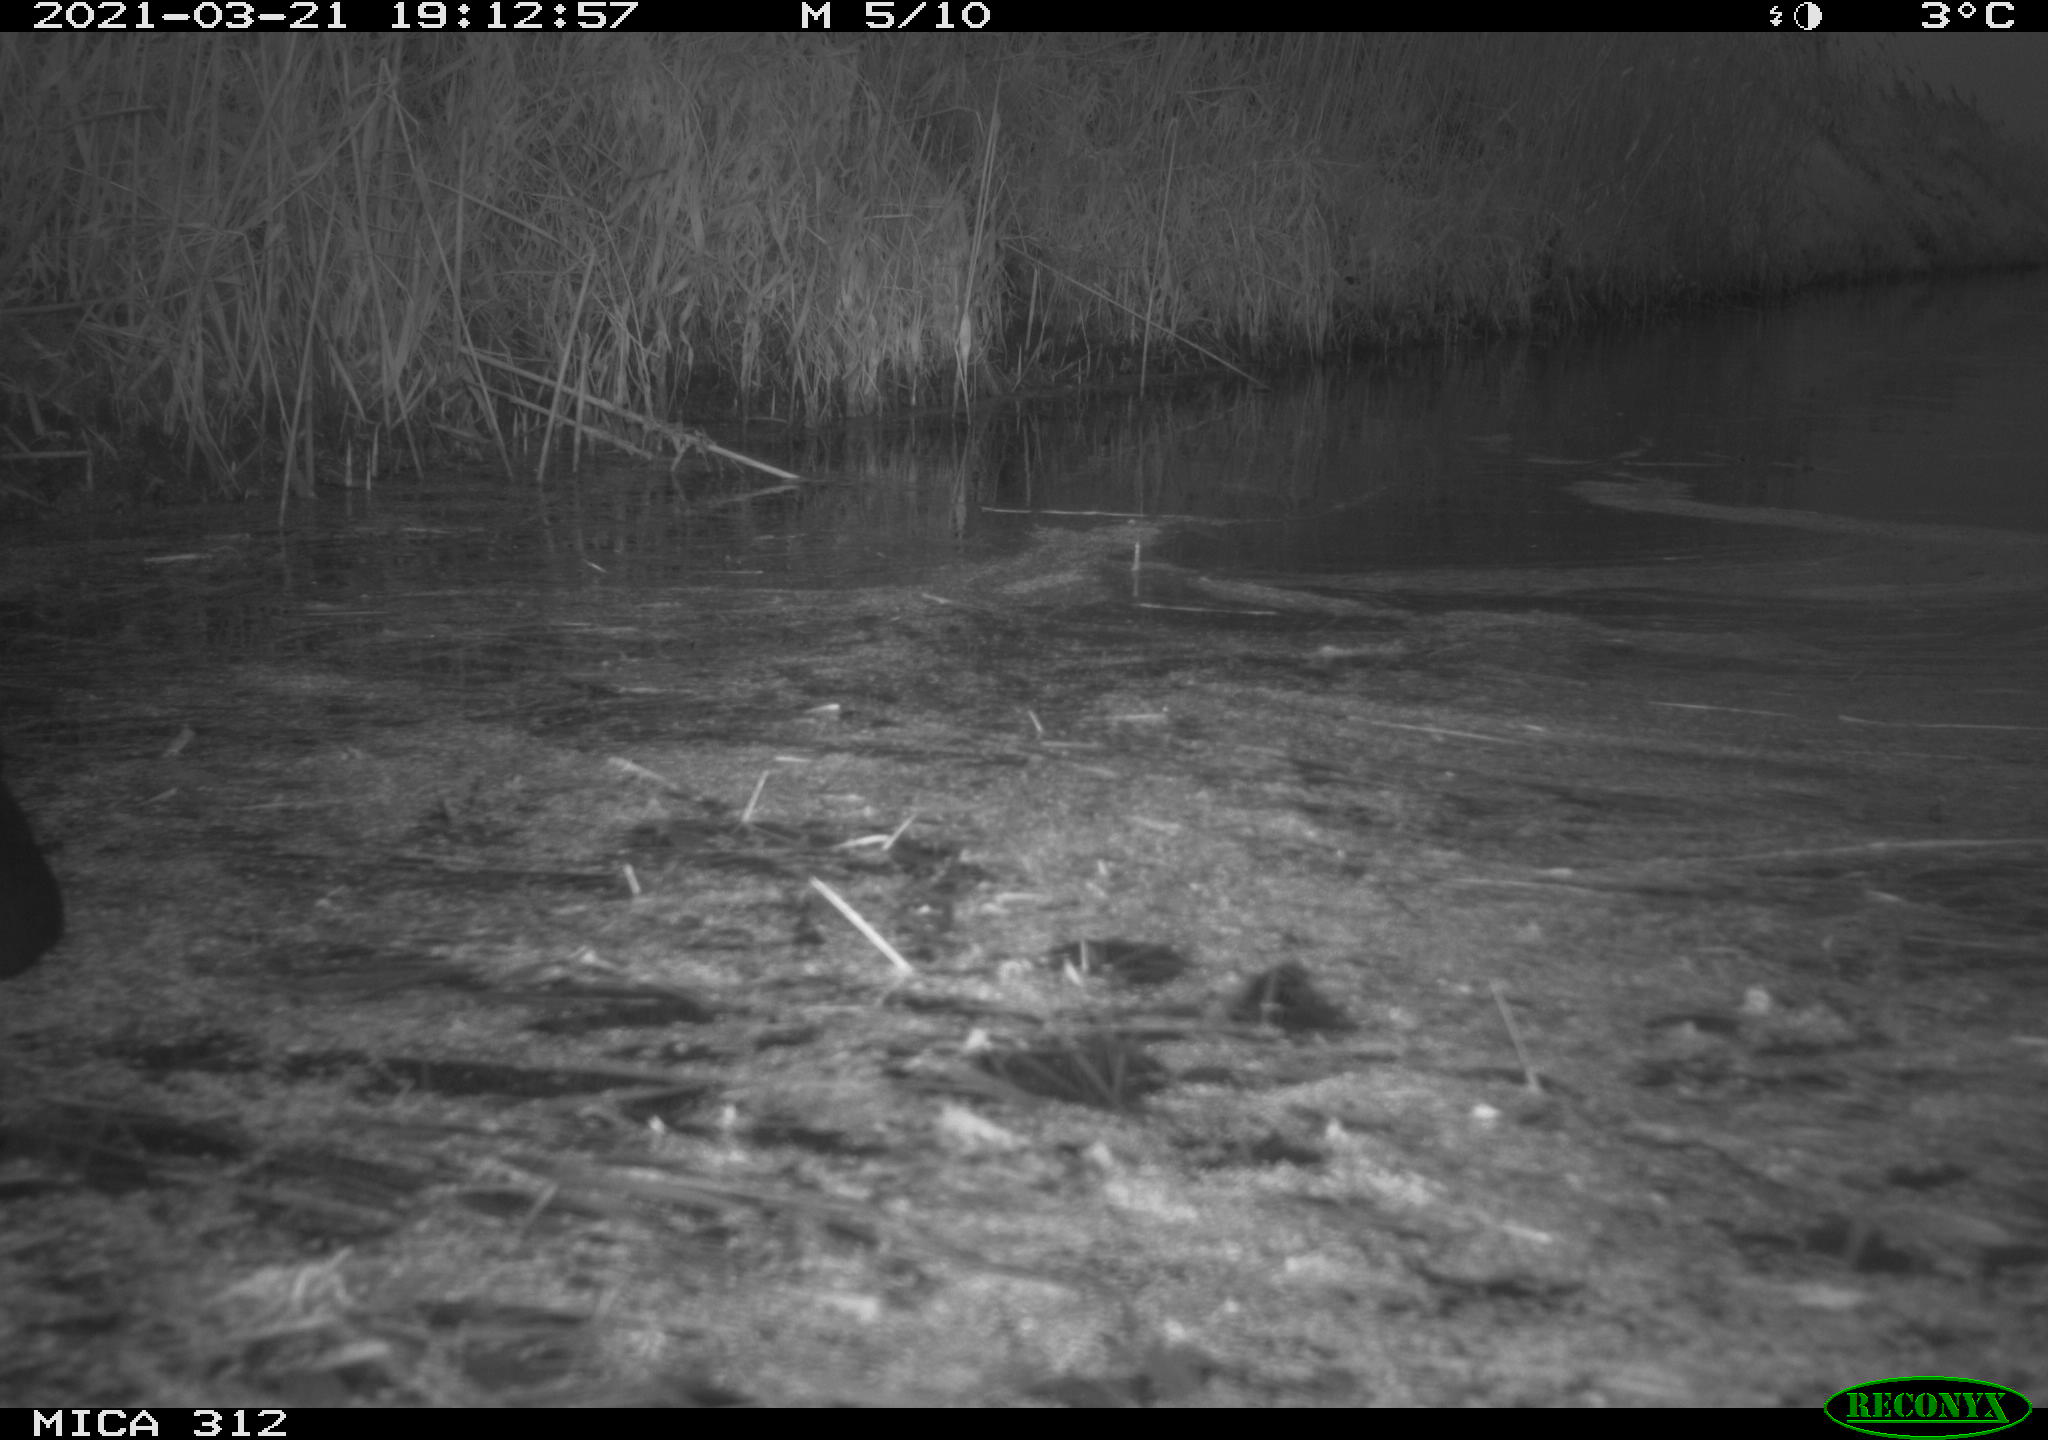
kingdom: Animalia
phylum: Chordata
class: Aves
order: Gruiformes
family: Rallidae
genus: Fulica
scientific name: Fulica atra
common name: Eurasian coot
